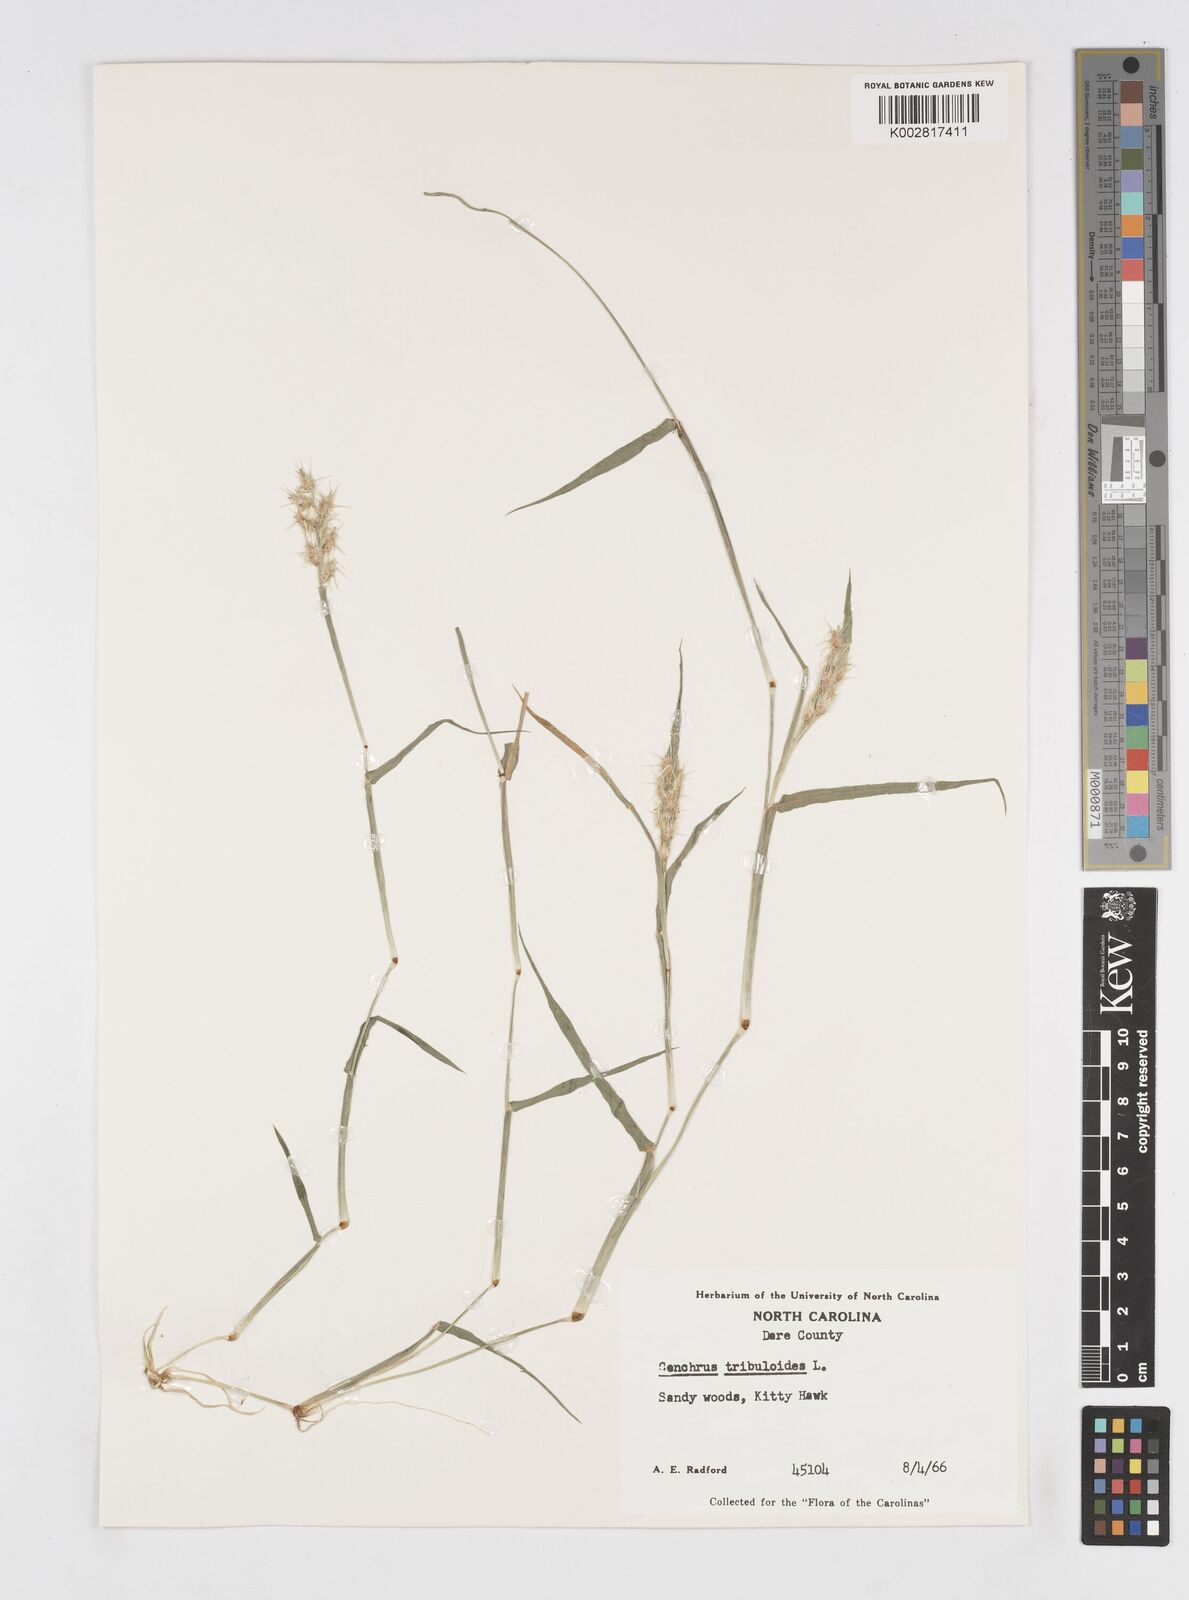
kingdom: Plantae
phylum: Tracheophyta
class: Liliopsida
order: Poales
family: Poaceae
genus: Cenchrus
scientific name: Cenchrus tribuloides
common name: Dune sandbur
